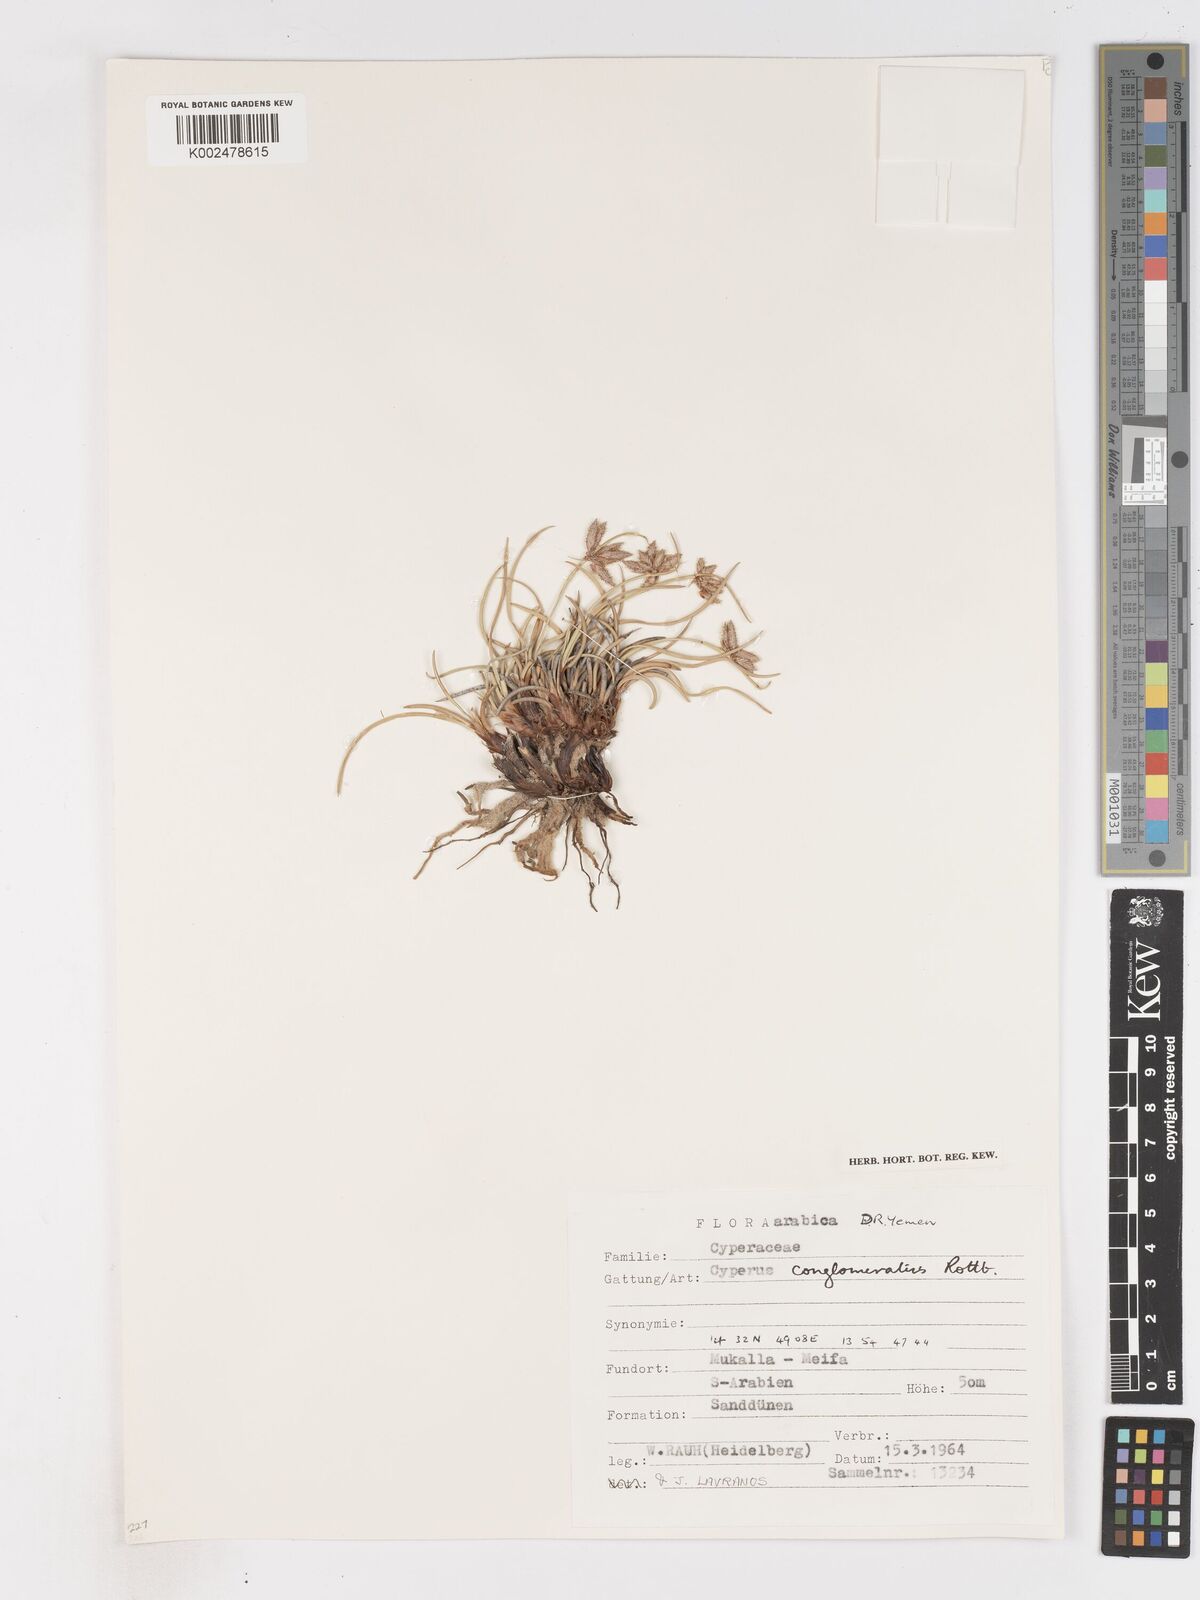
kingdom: Plantae
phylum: Tracheophyta
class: Liliopsida
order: Poales
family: Cyperaceae
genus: Cyperus
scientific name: Cyperus conglomeratus
